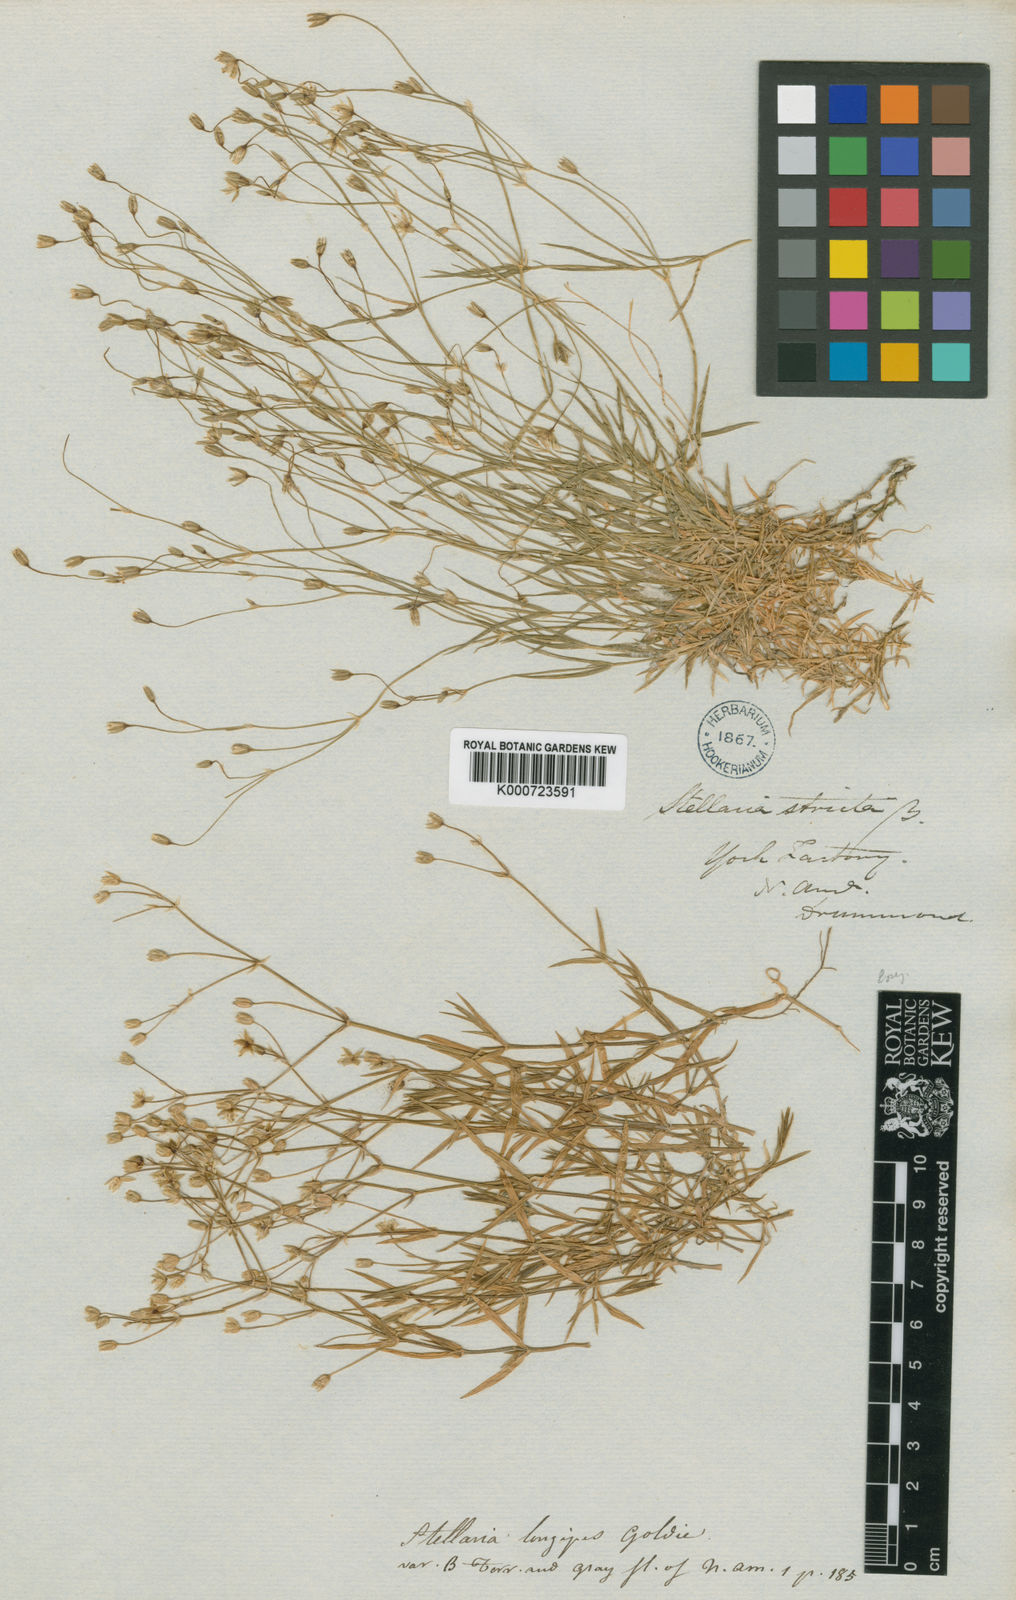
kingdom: Plantae
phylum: Tracheophyta
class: Magnoliopsida
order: Caryophyllales
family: Caryophyllaceae
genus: Stellaria
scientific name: Stellaria longipes
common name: Goldie's starwort
